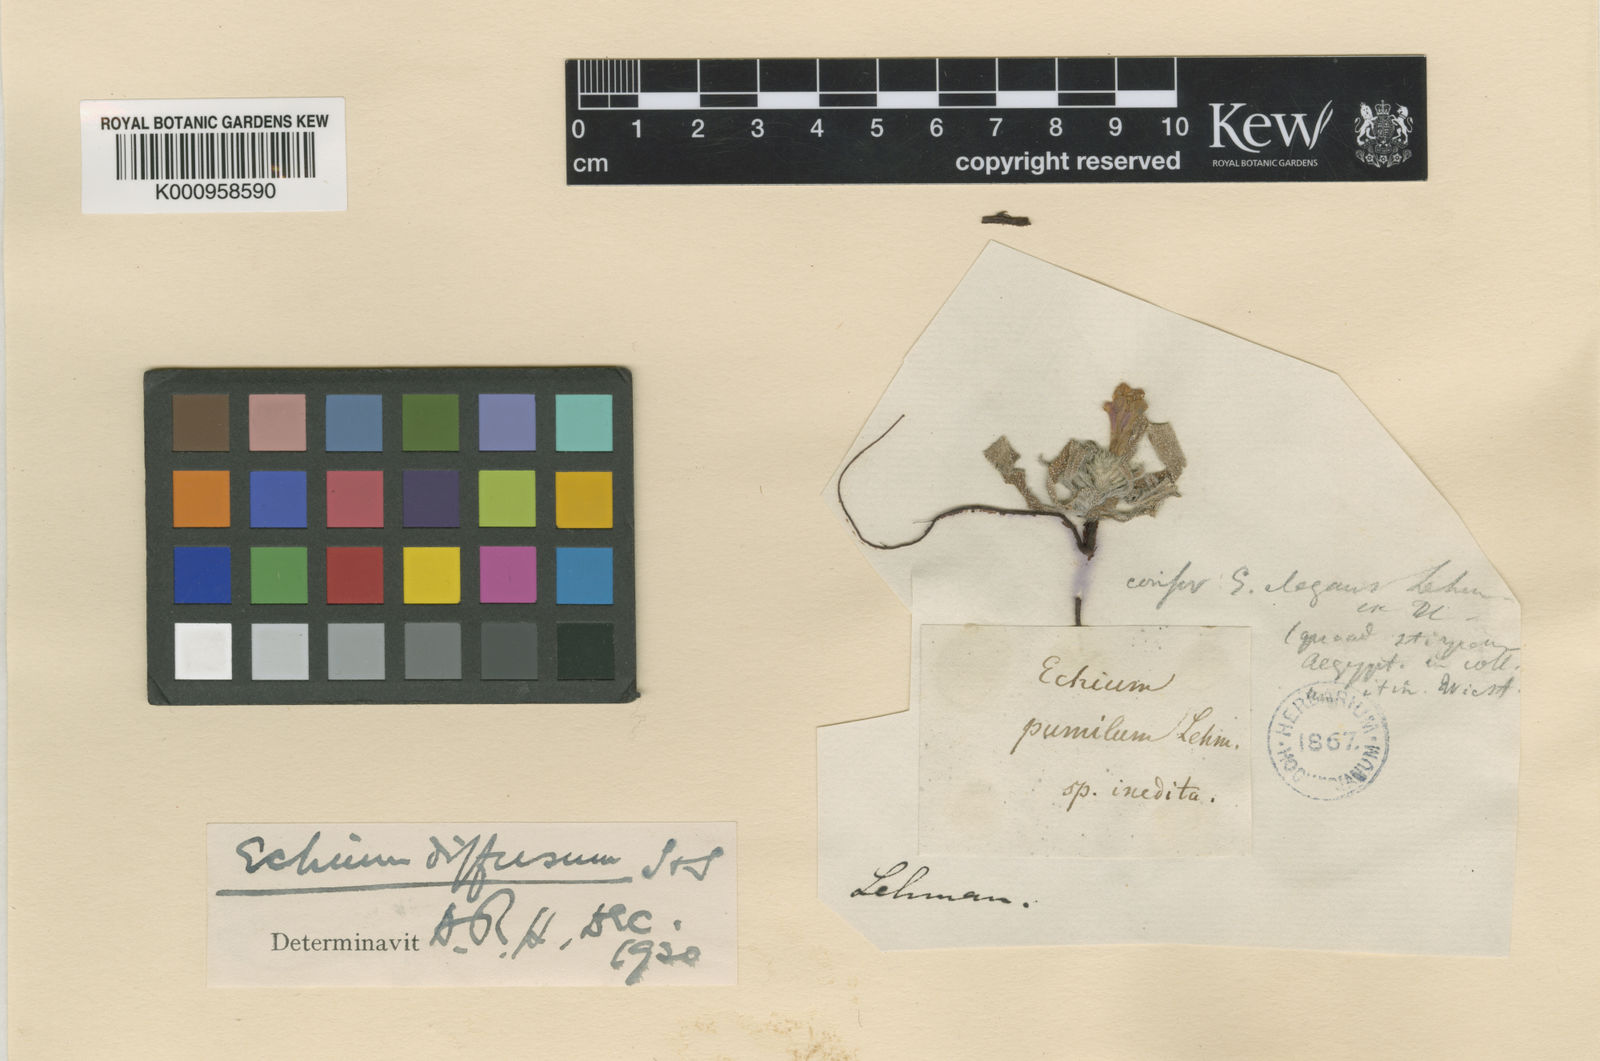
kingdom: Plantae
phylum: Tracheophyta
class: Magnoliopsida
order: Boraginales
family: Boraginaceae
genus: Echium
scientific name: Echium angustifolium
